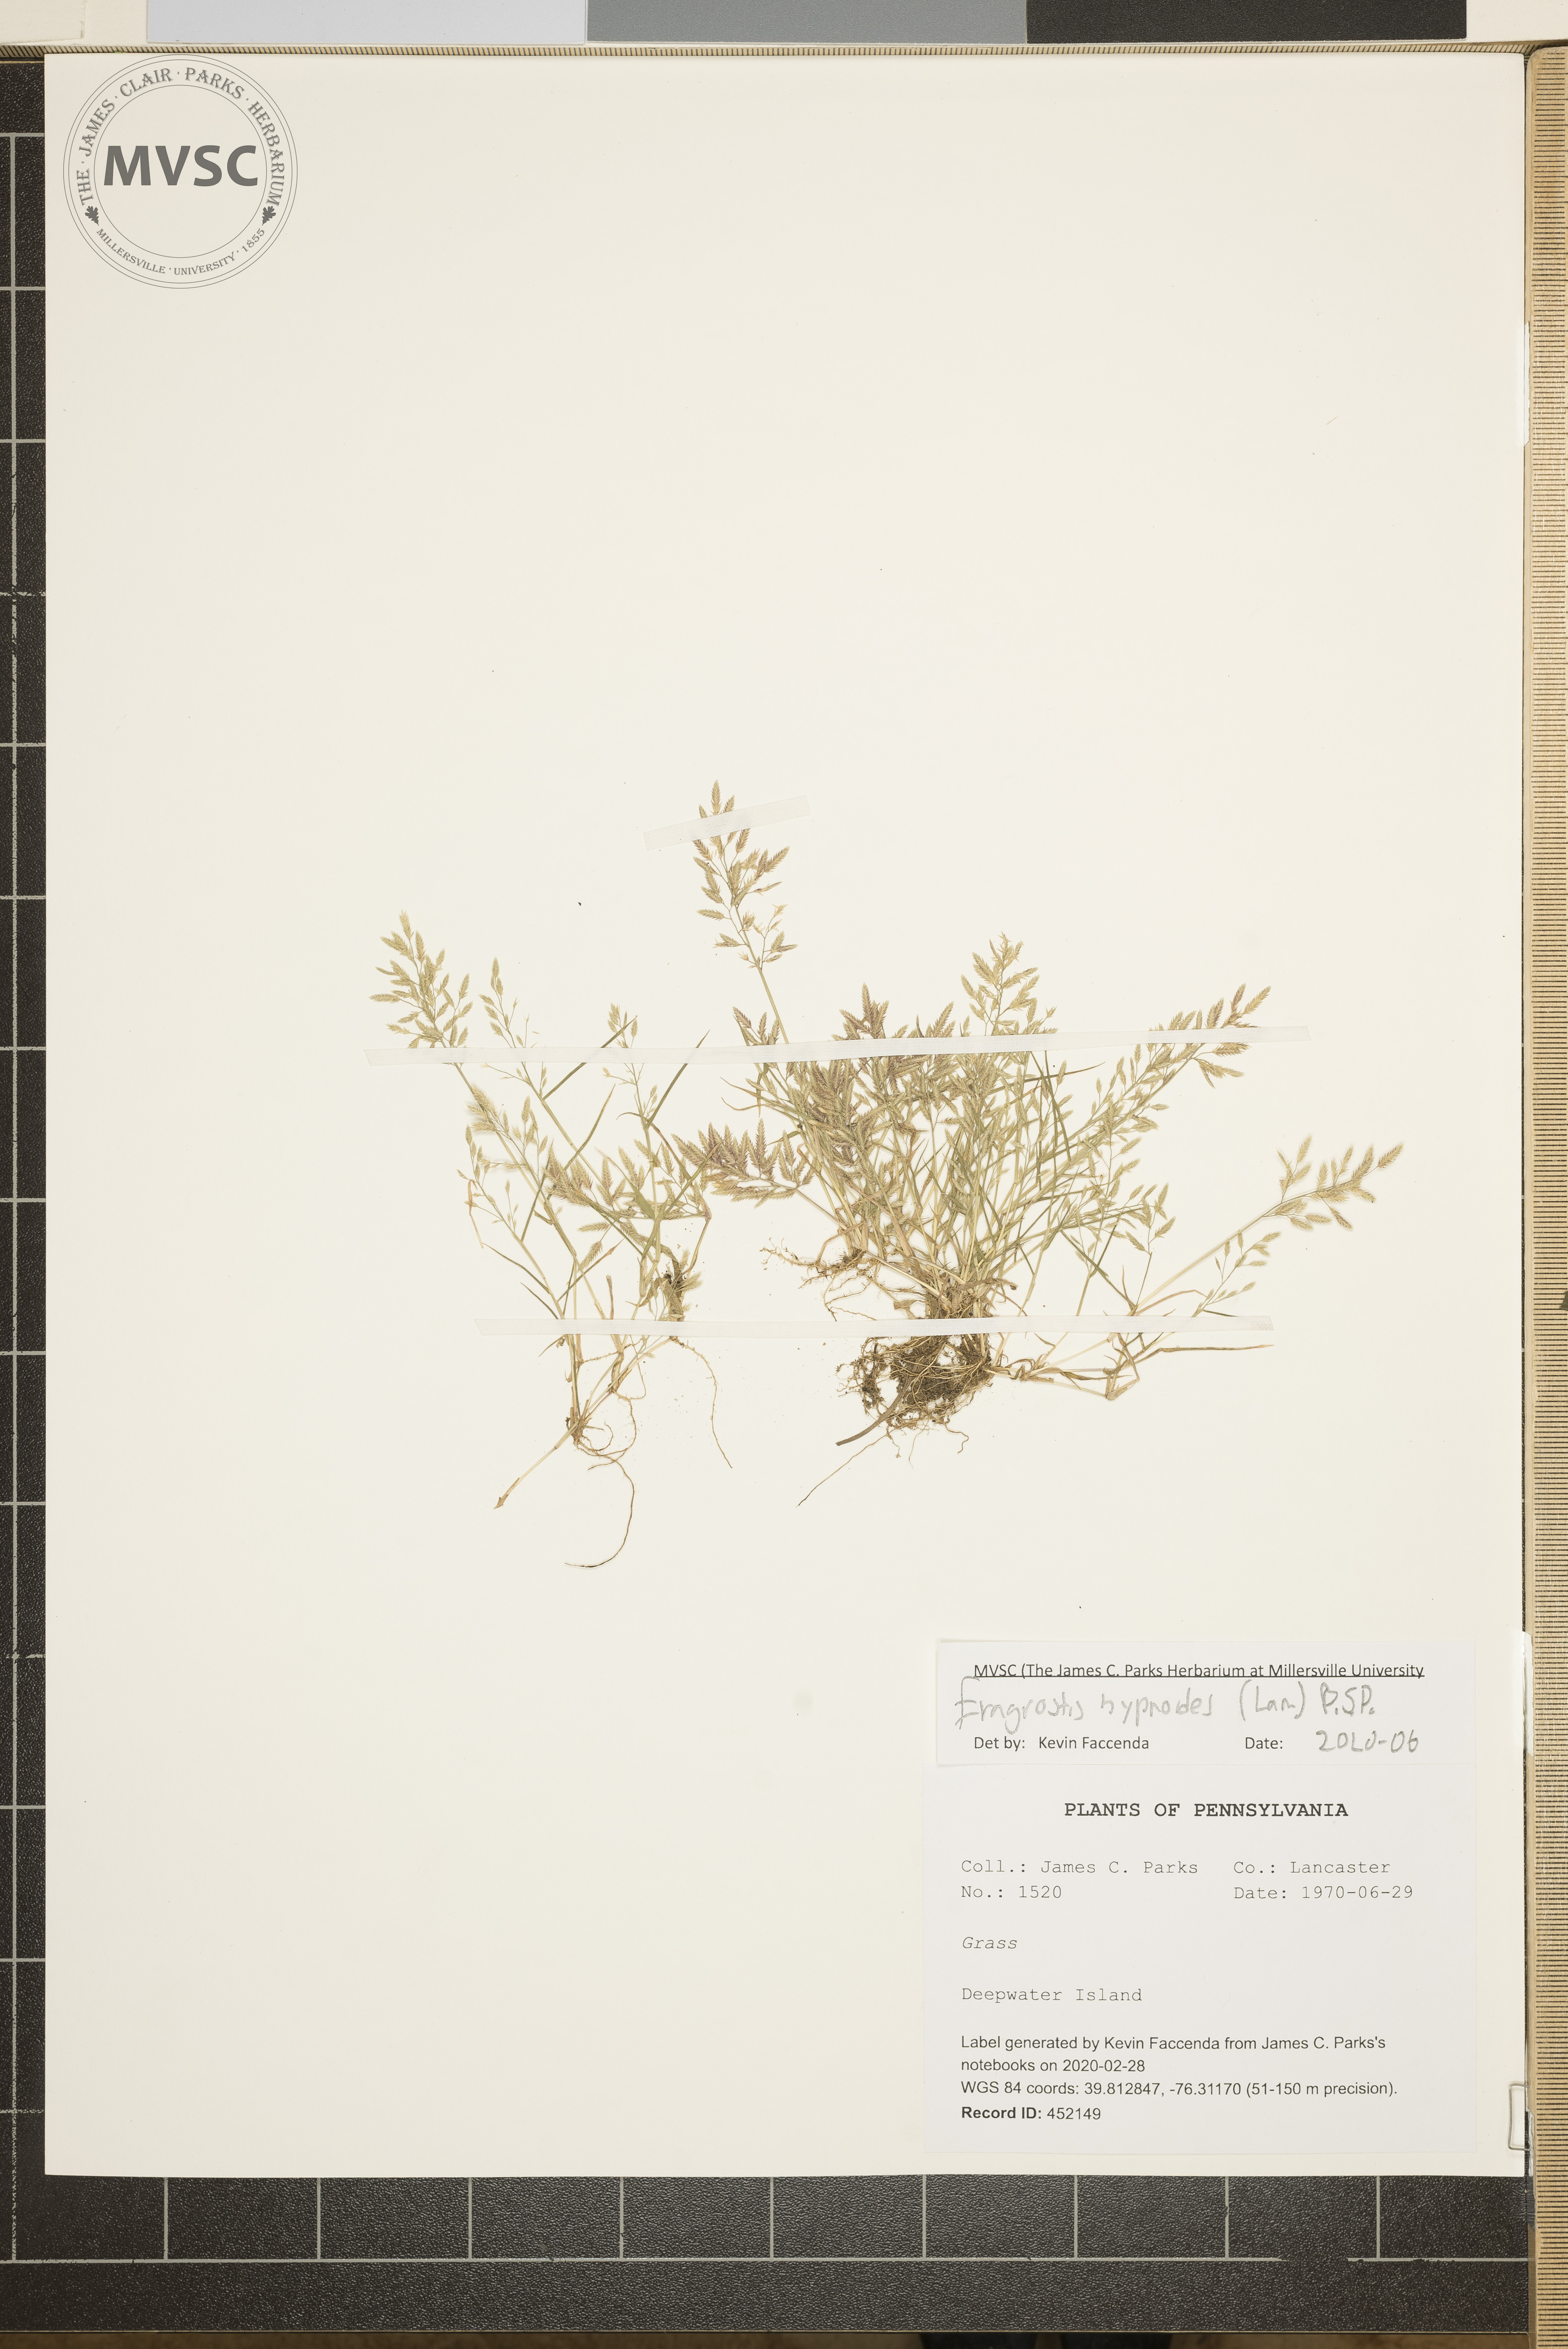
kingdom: Plantae
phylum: Tracheophyta
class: Liliopsida
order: Poales
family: Poaceae
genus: Eragrostis
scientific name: Eragrostis hypnoides
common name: Creeping love grass
